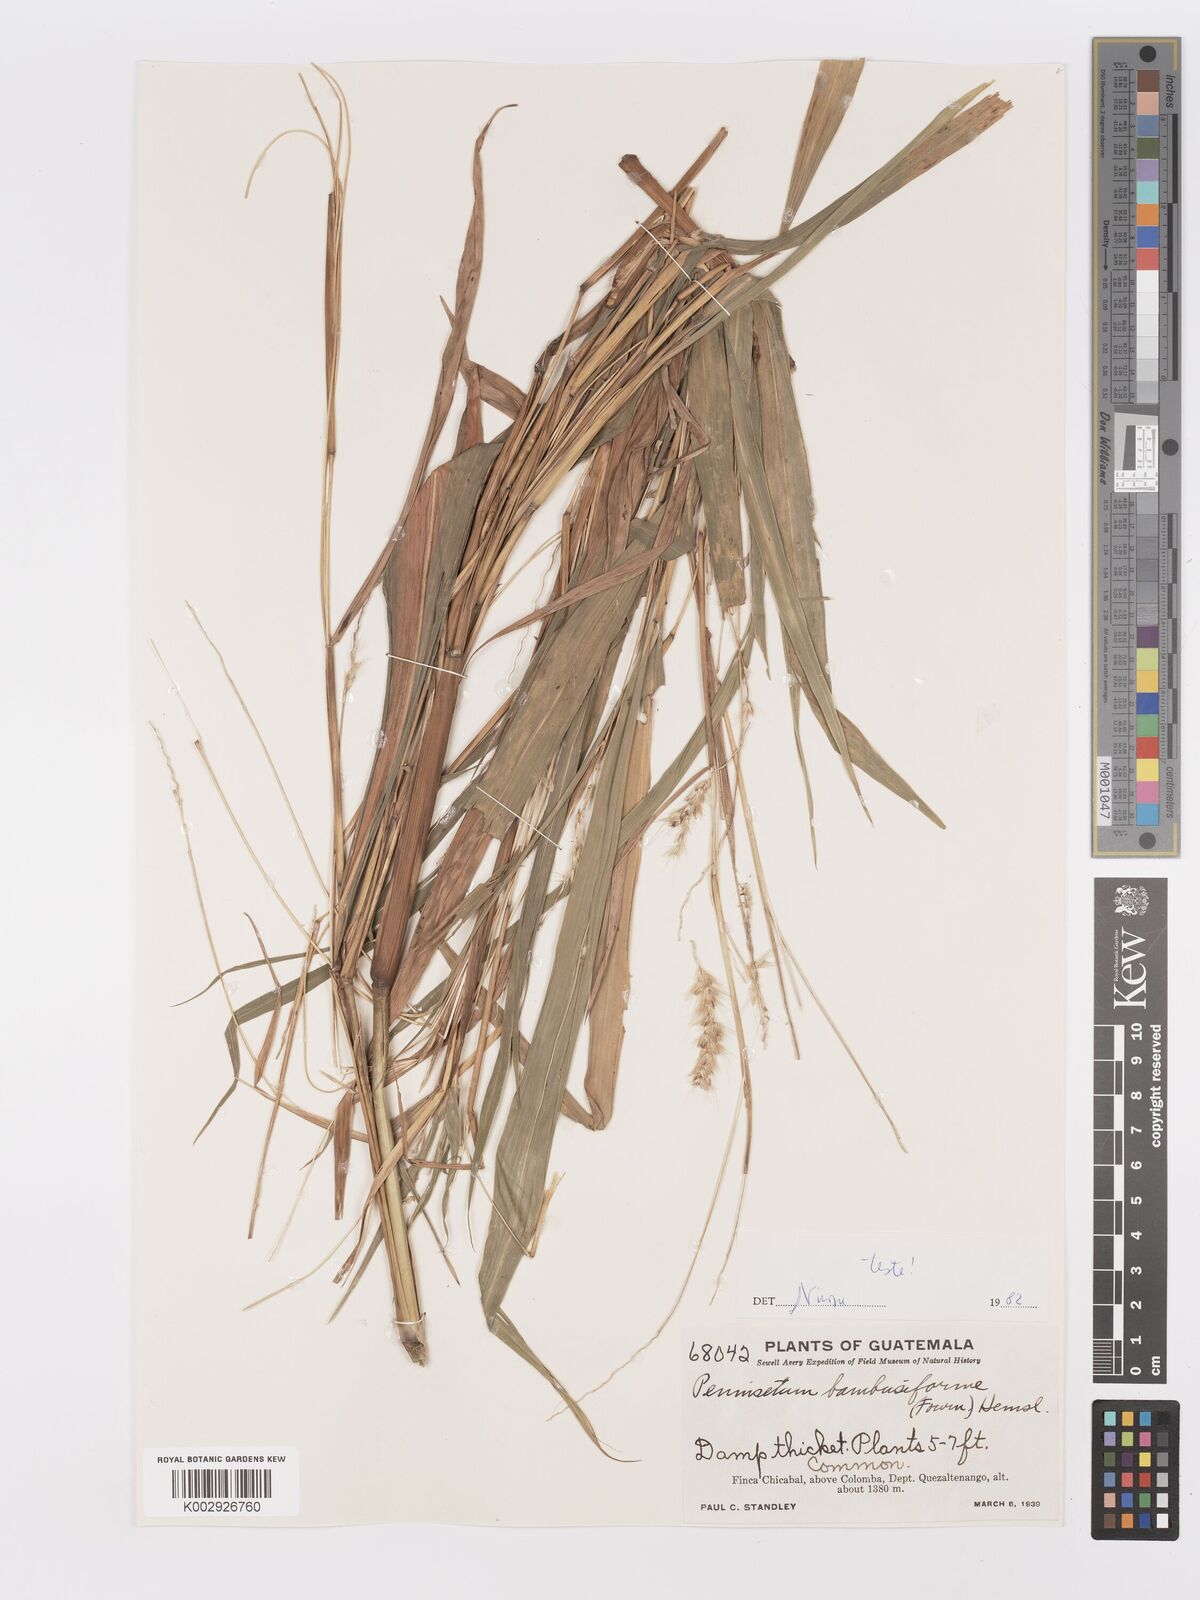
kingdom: Plantae
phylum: Tracheophyta
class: Liliopsida
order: Poales
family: Poaceae
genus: Cenchrus
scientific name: Cenchrus preslii
